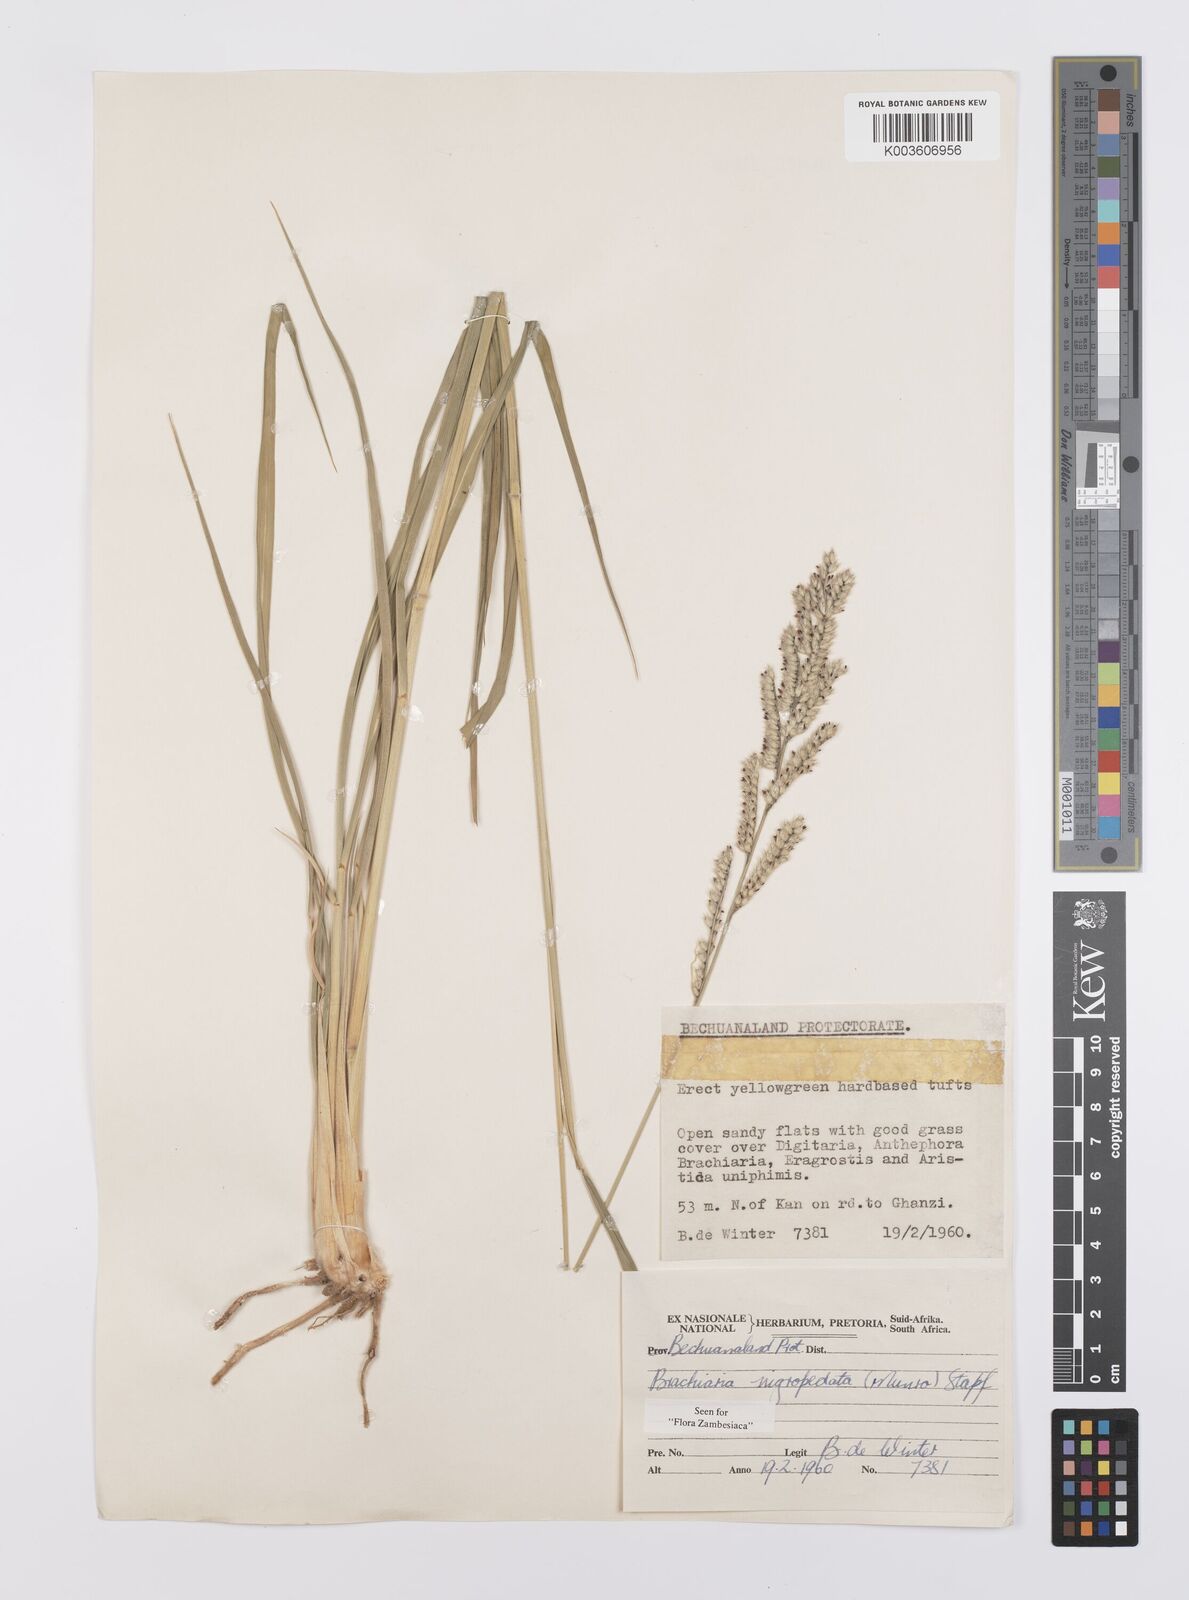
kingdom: Plantae
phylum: Tracheophyta
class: Liliopsida
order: Poales
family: Poaceae
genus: Urochloa
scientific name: Urochloa nigropedata
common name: Spotted signal grass
